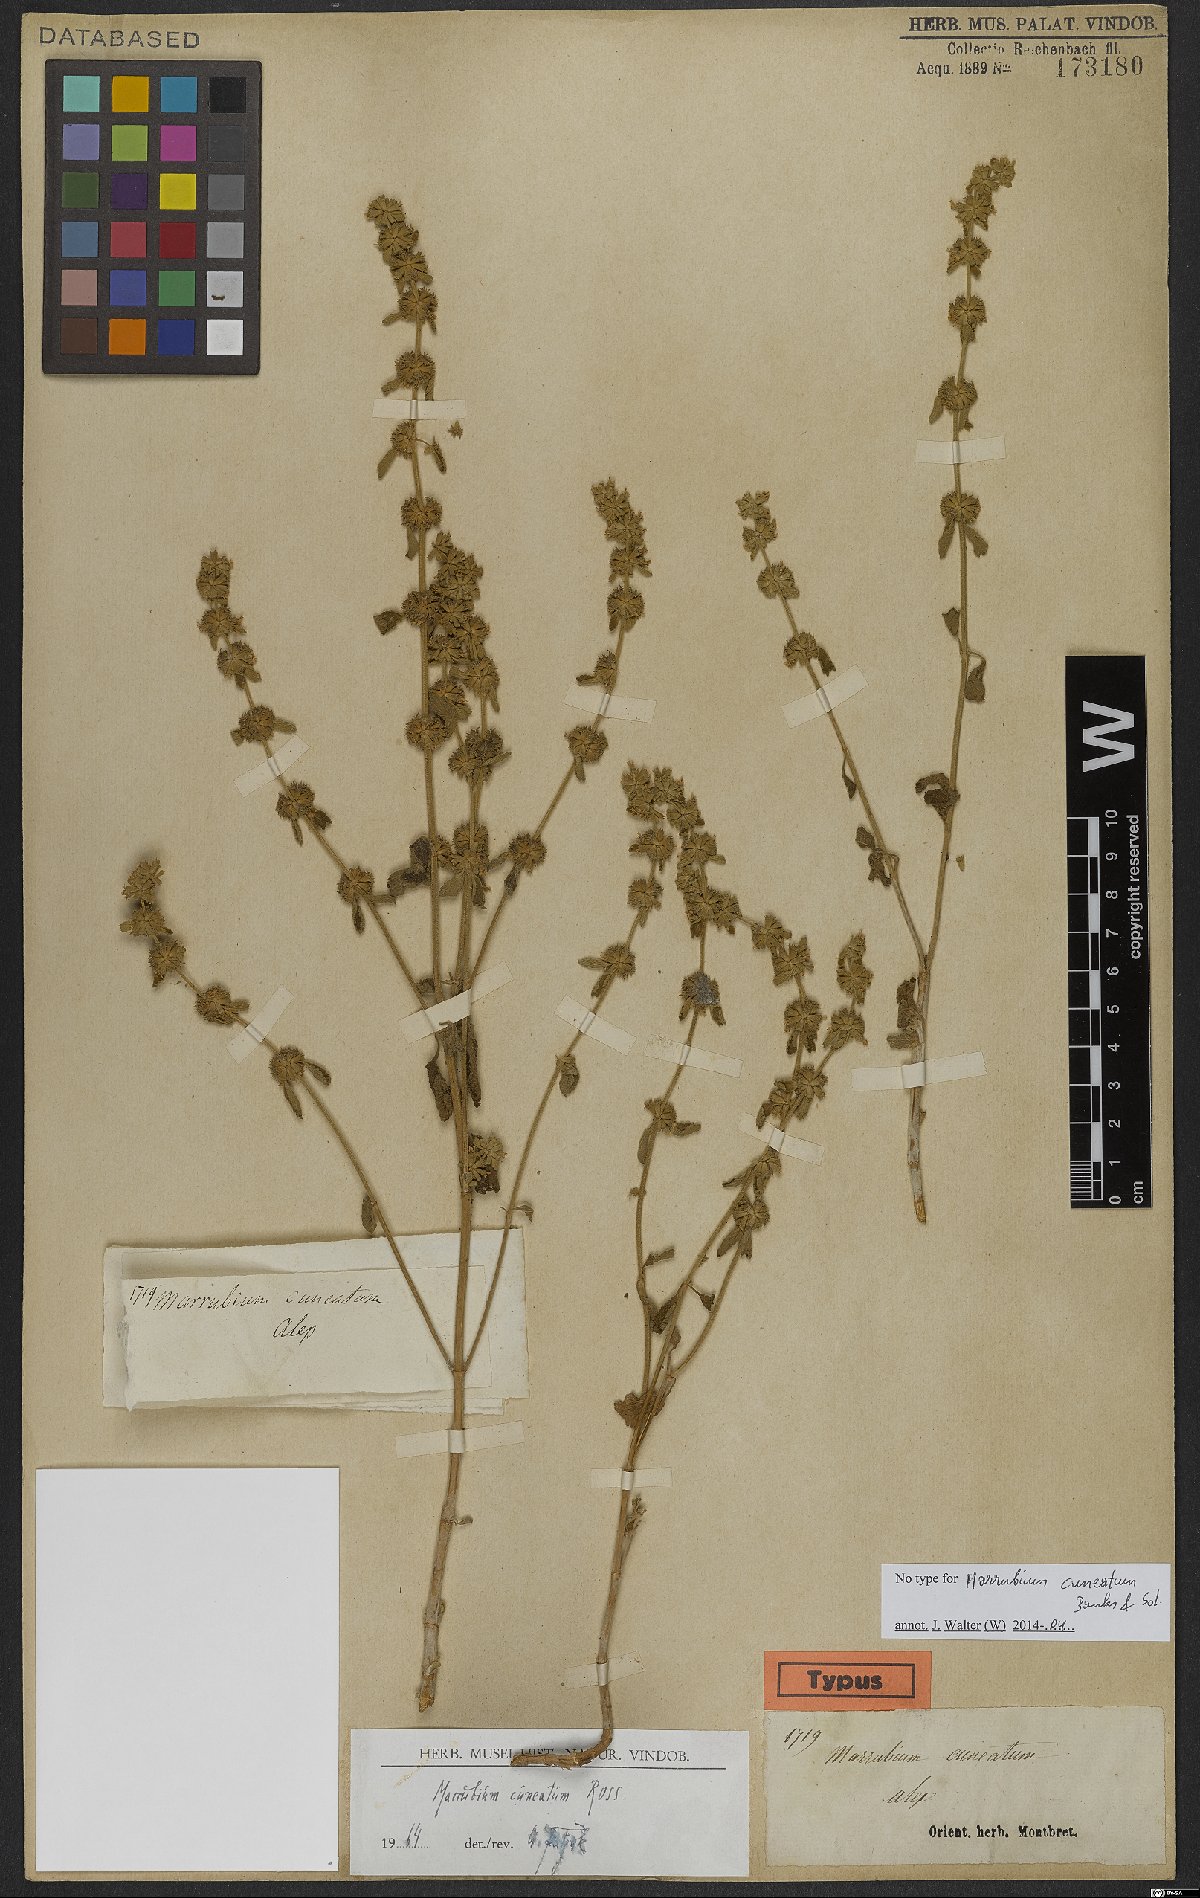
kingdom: Plantae
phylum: Tracheophyta
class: Magnoliopsida
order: Lamiales
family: Lamiaceae
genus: Marrubium
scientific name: Marrubium cuneatum
